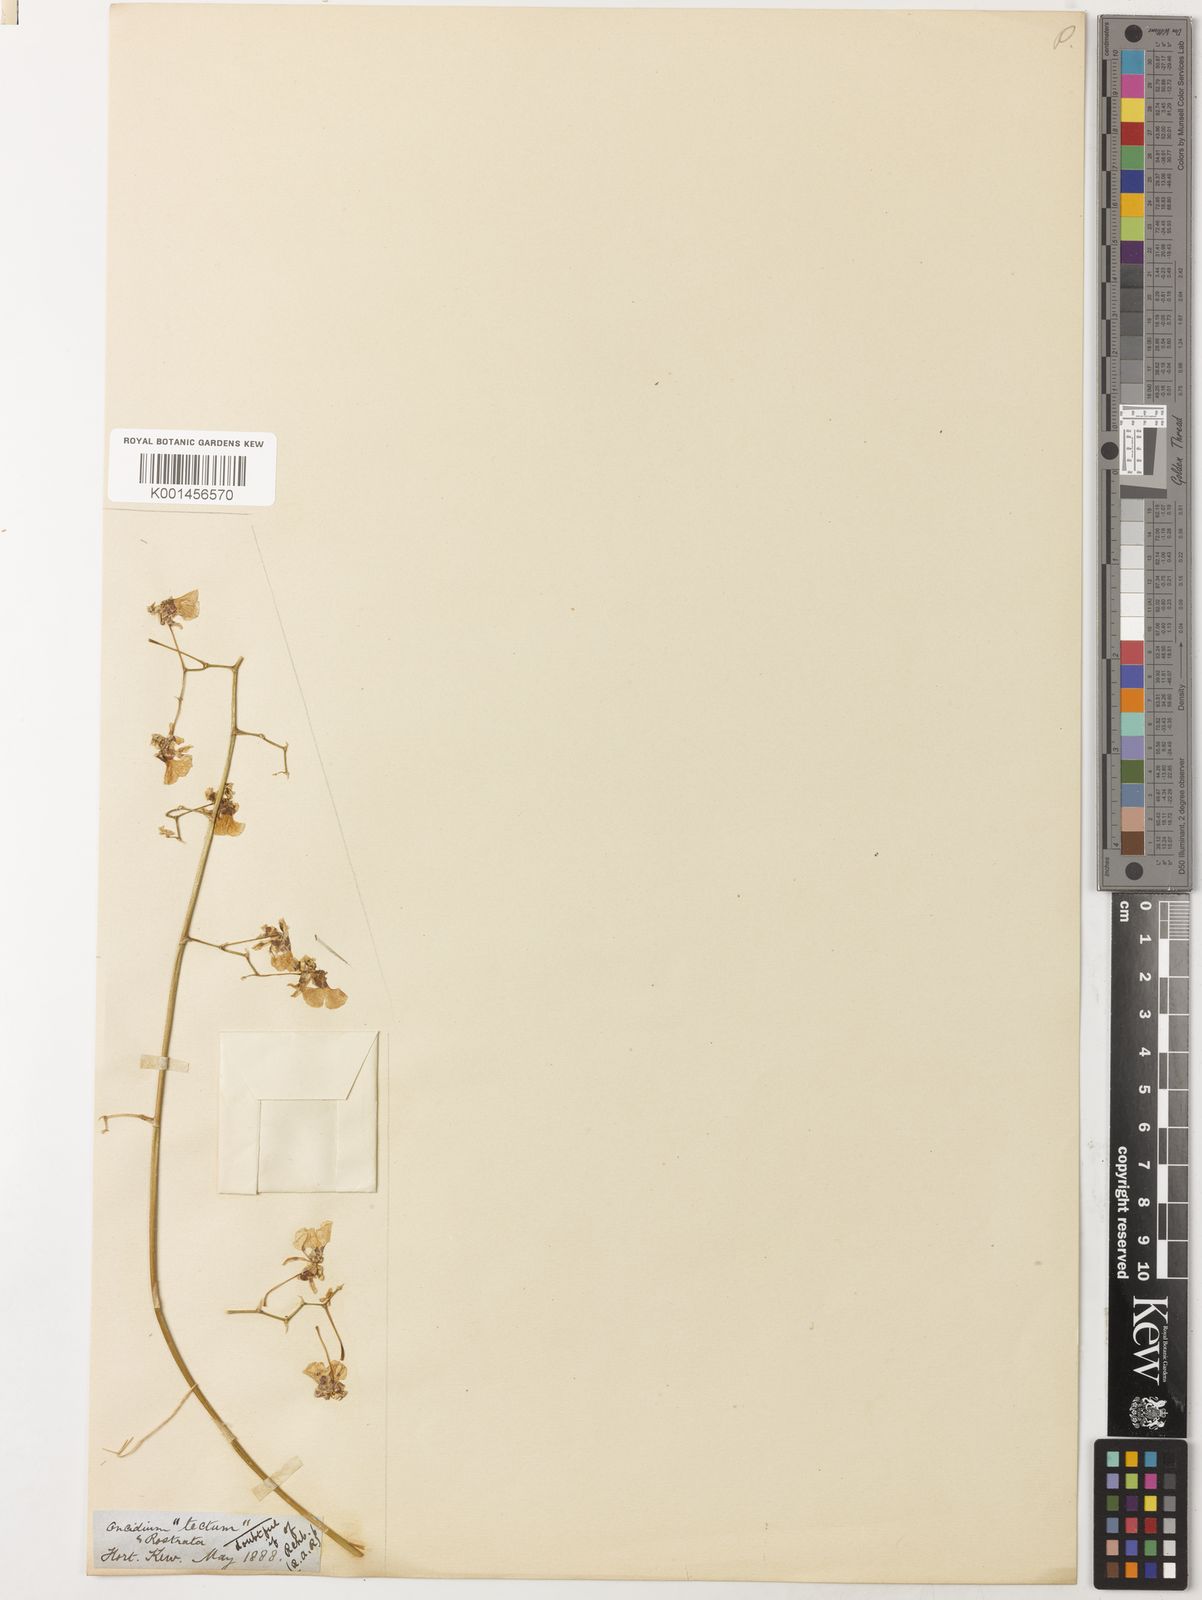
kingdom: Plantae
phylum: Tracheophyta
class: Liliopsida
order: Asparagales
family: Orchidaceae
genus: Oncidium
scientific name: Oncidium tectum
